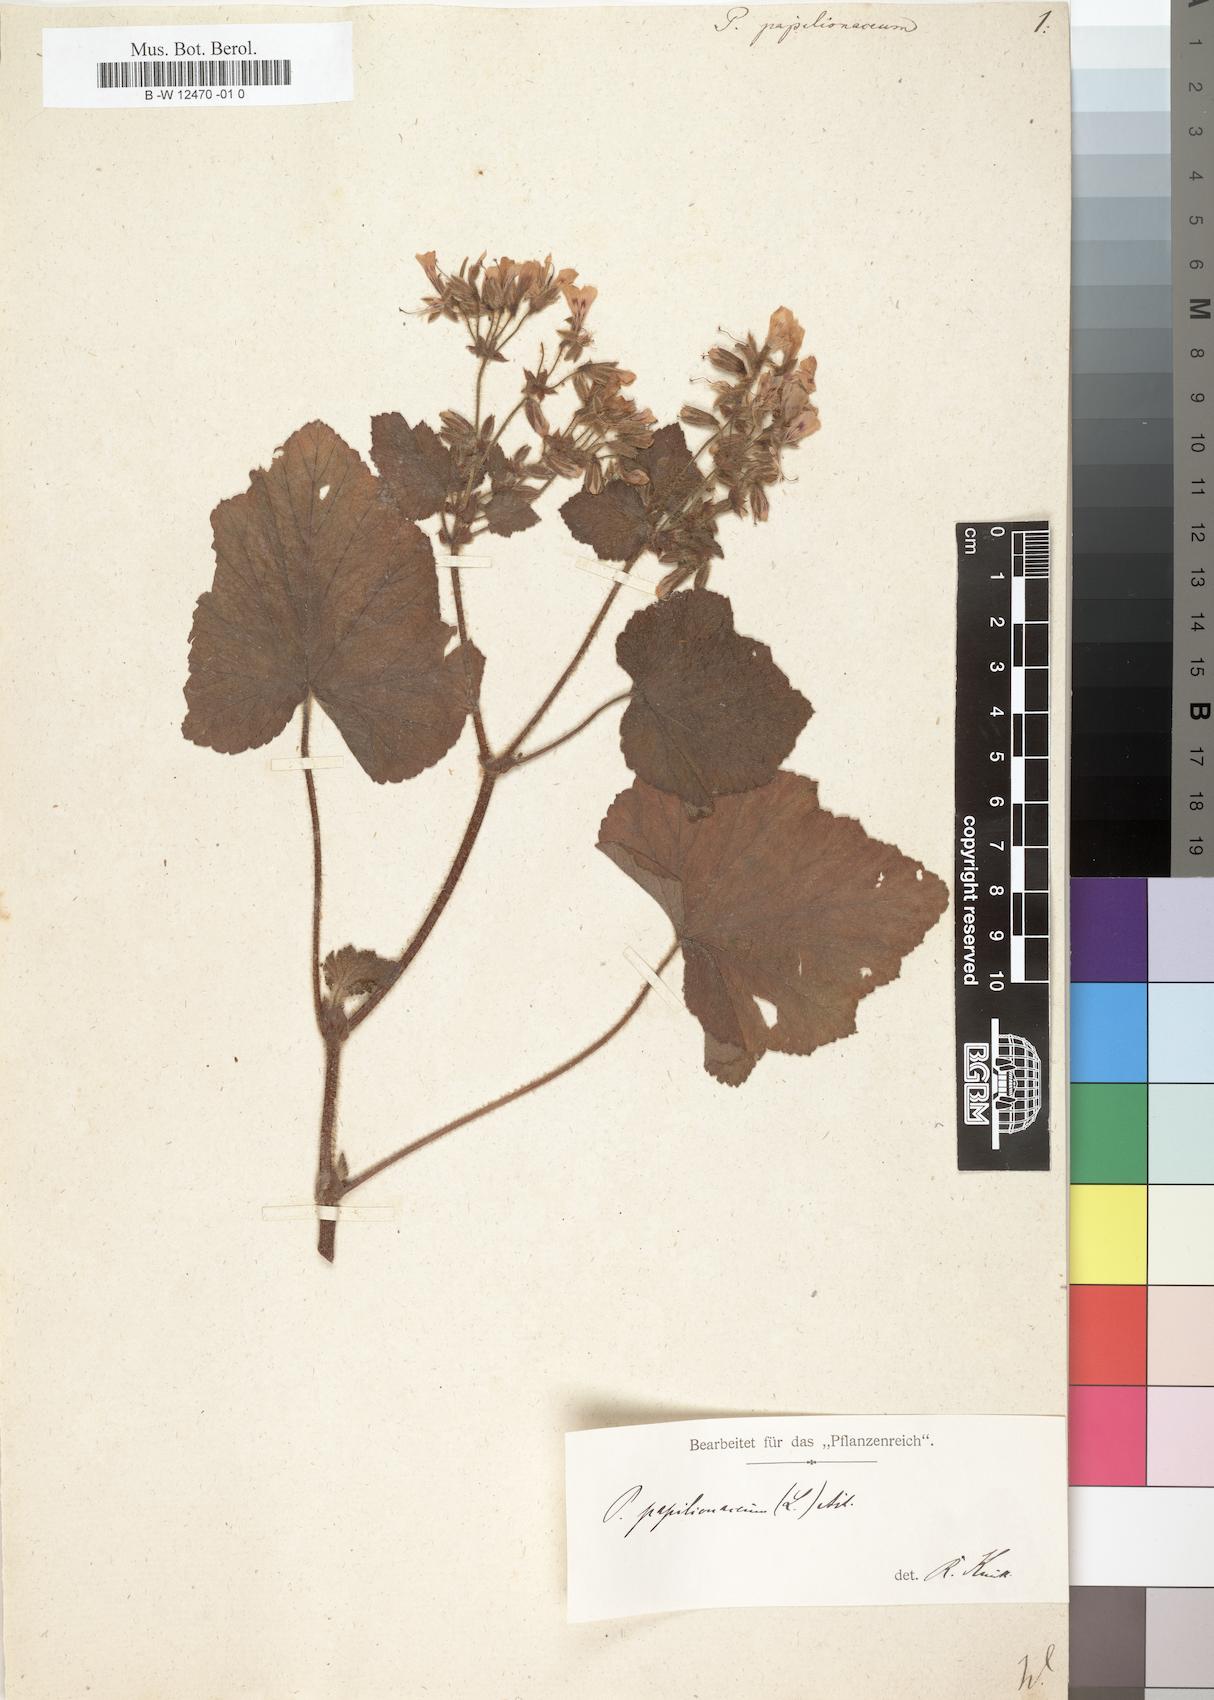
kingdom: Plantae
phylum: Tracheophyta
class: Magnoliopsida
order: Geraniales
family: Geraniaceae
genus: Pelargonium
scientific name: Pelargonium papilionaceum
